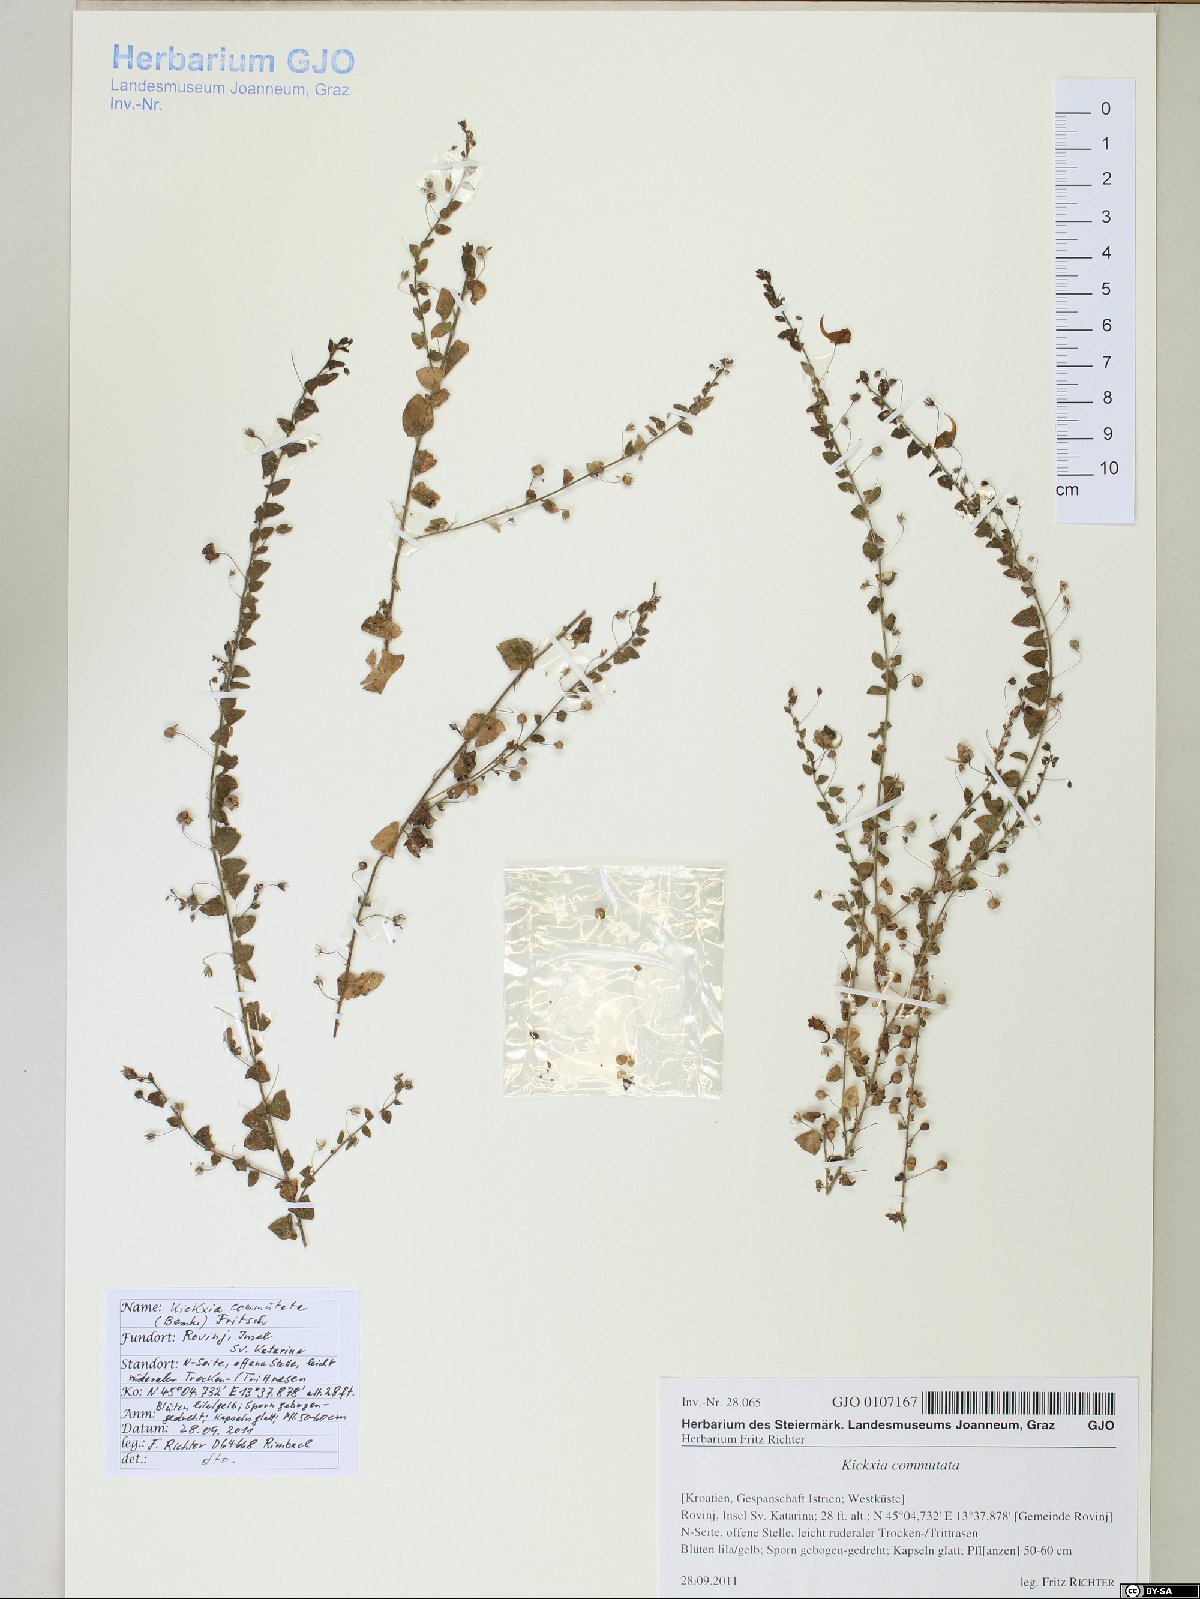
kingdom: Plantae
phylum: Tracheophyta
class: Magnoliopsida
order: Lamiales
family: Plantaginaceae
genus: Kickxia
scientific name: Kickxia commutata
